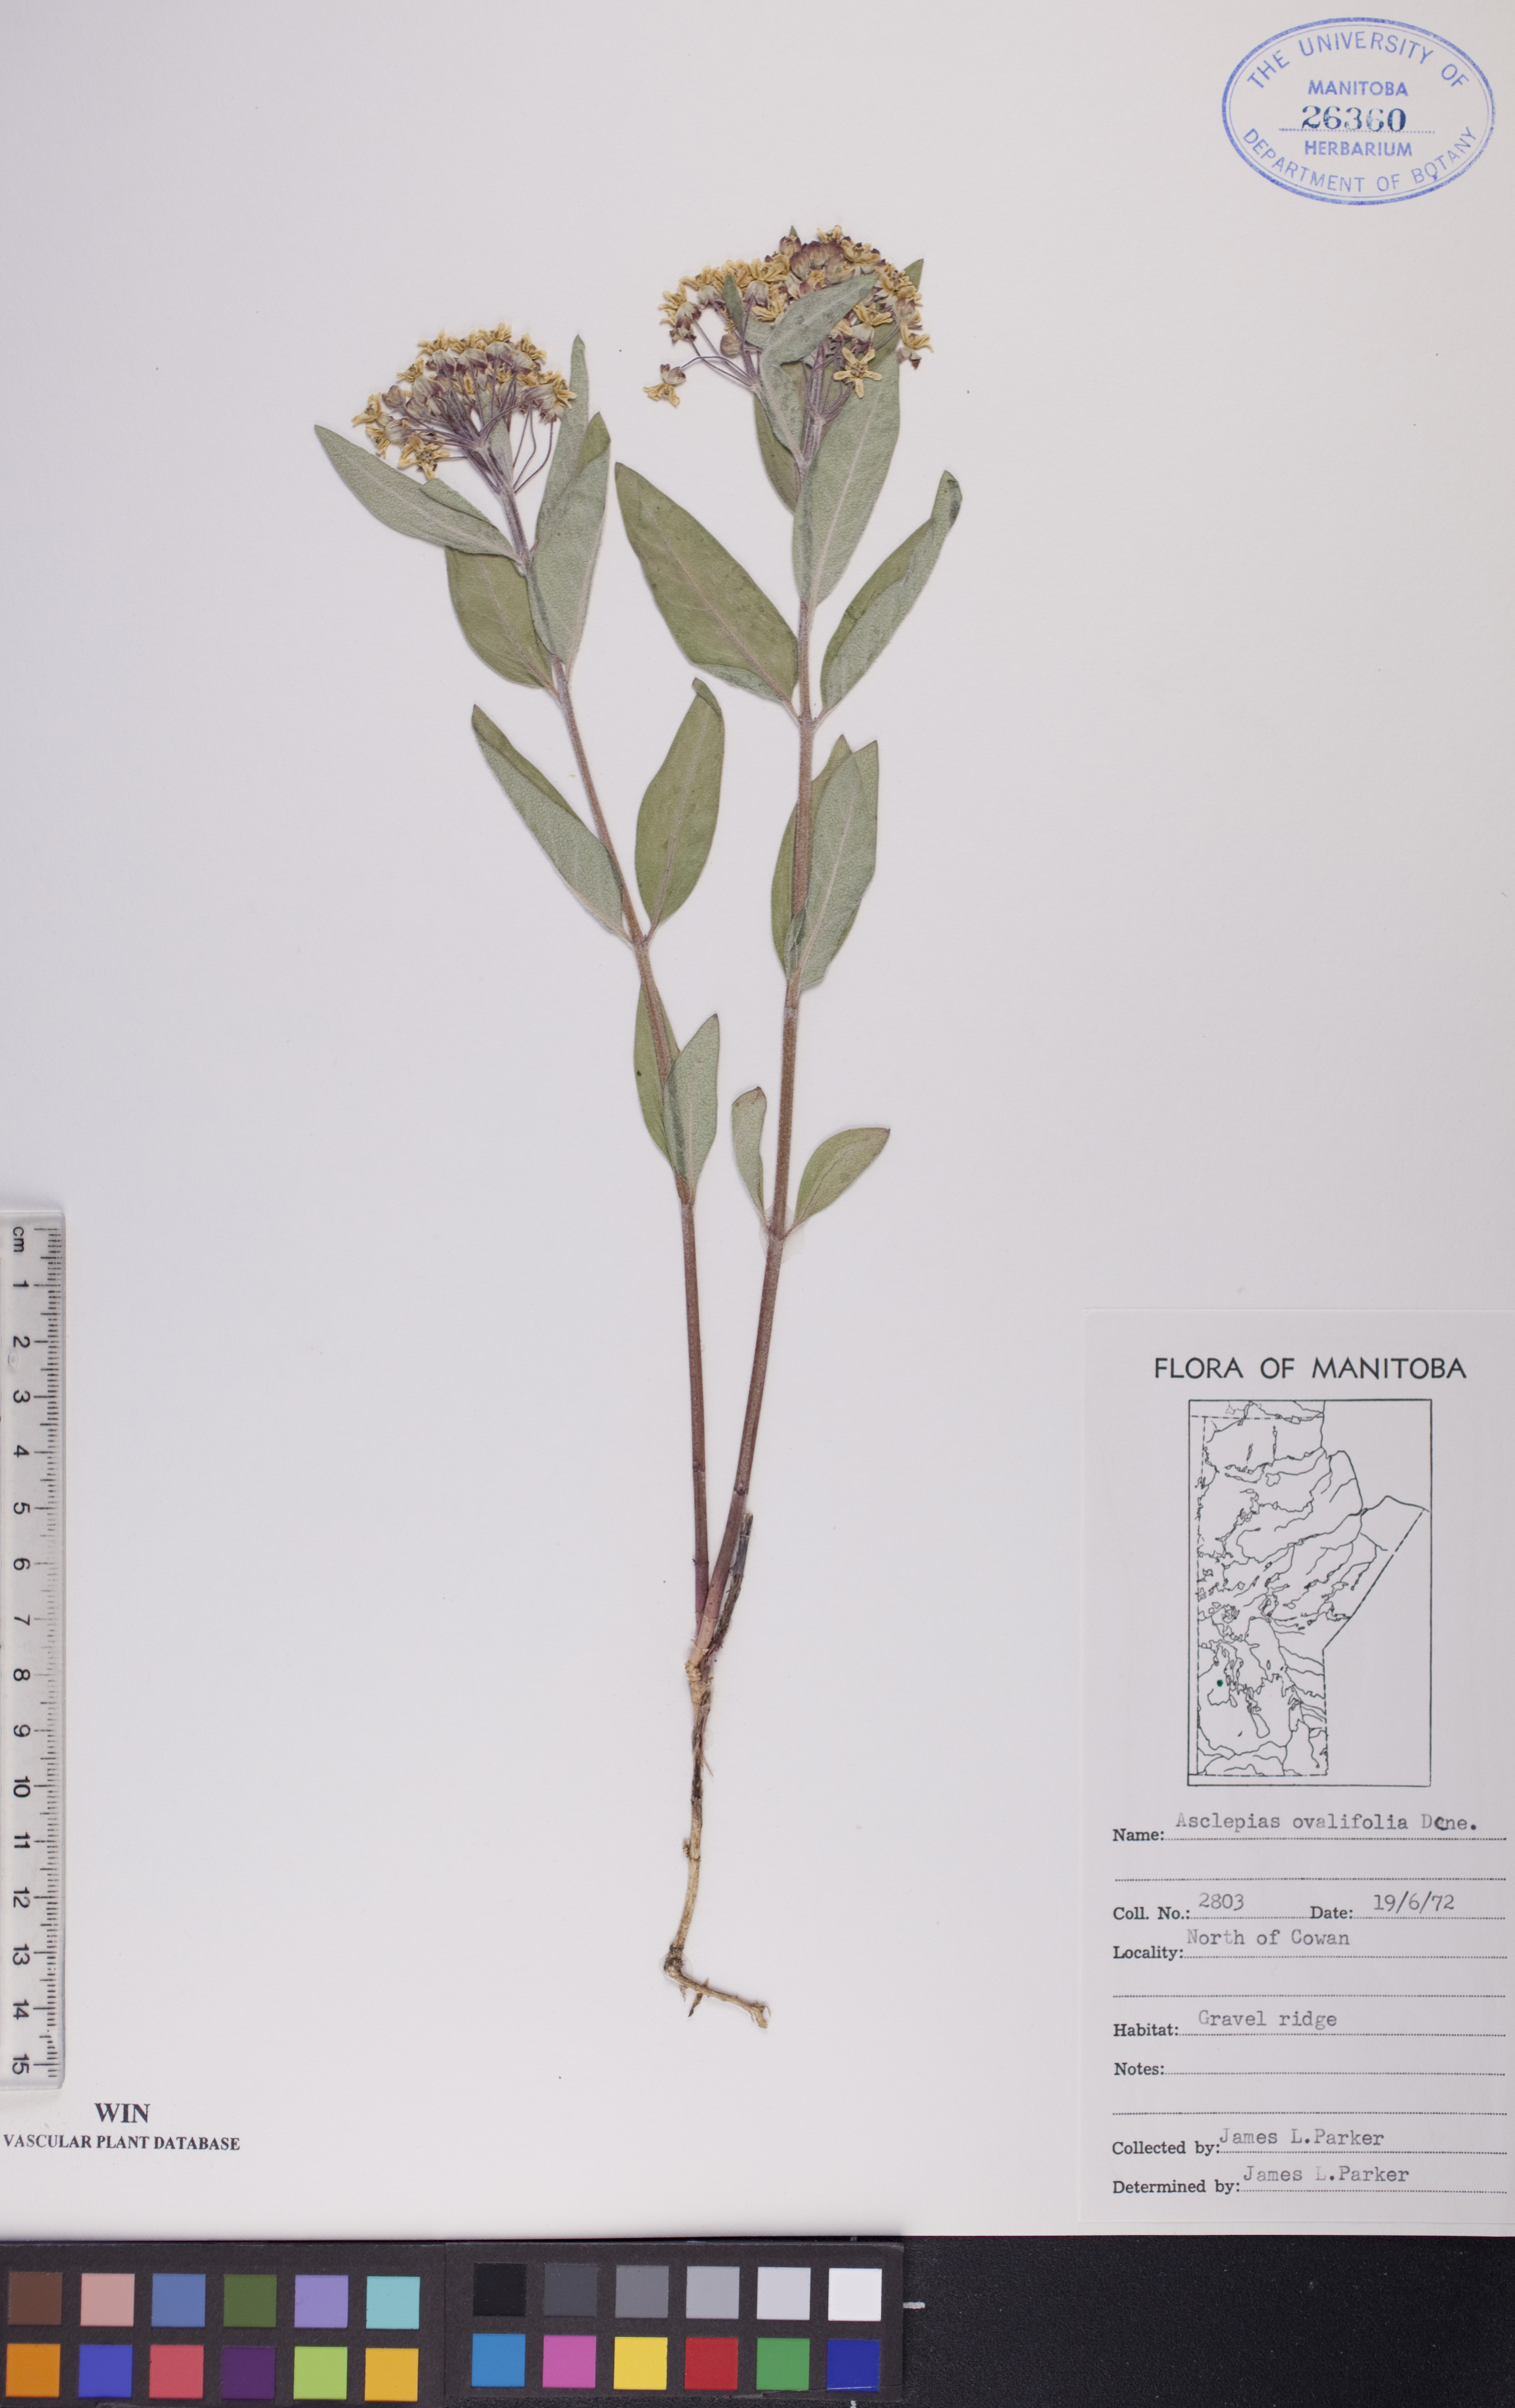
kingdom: Plantae
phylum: Tracheophyta
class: Magnoliopsida
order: Gentianales
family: Apocynaceae
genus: Asclepias
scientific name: Asclepias ovalifolia
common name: Dwarf milkweed
